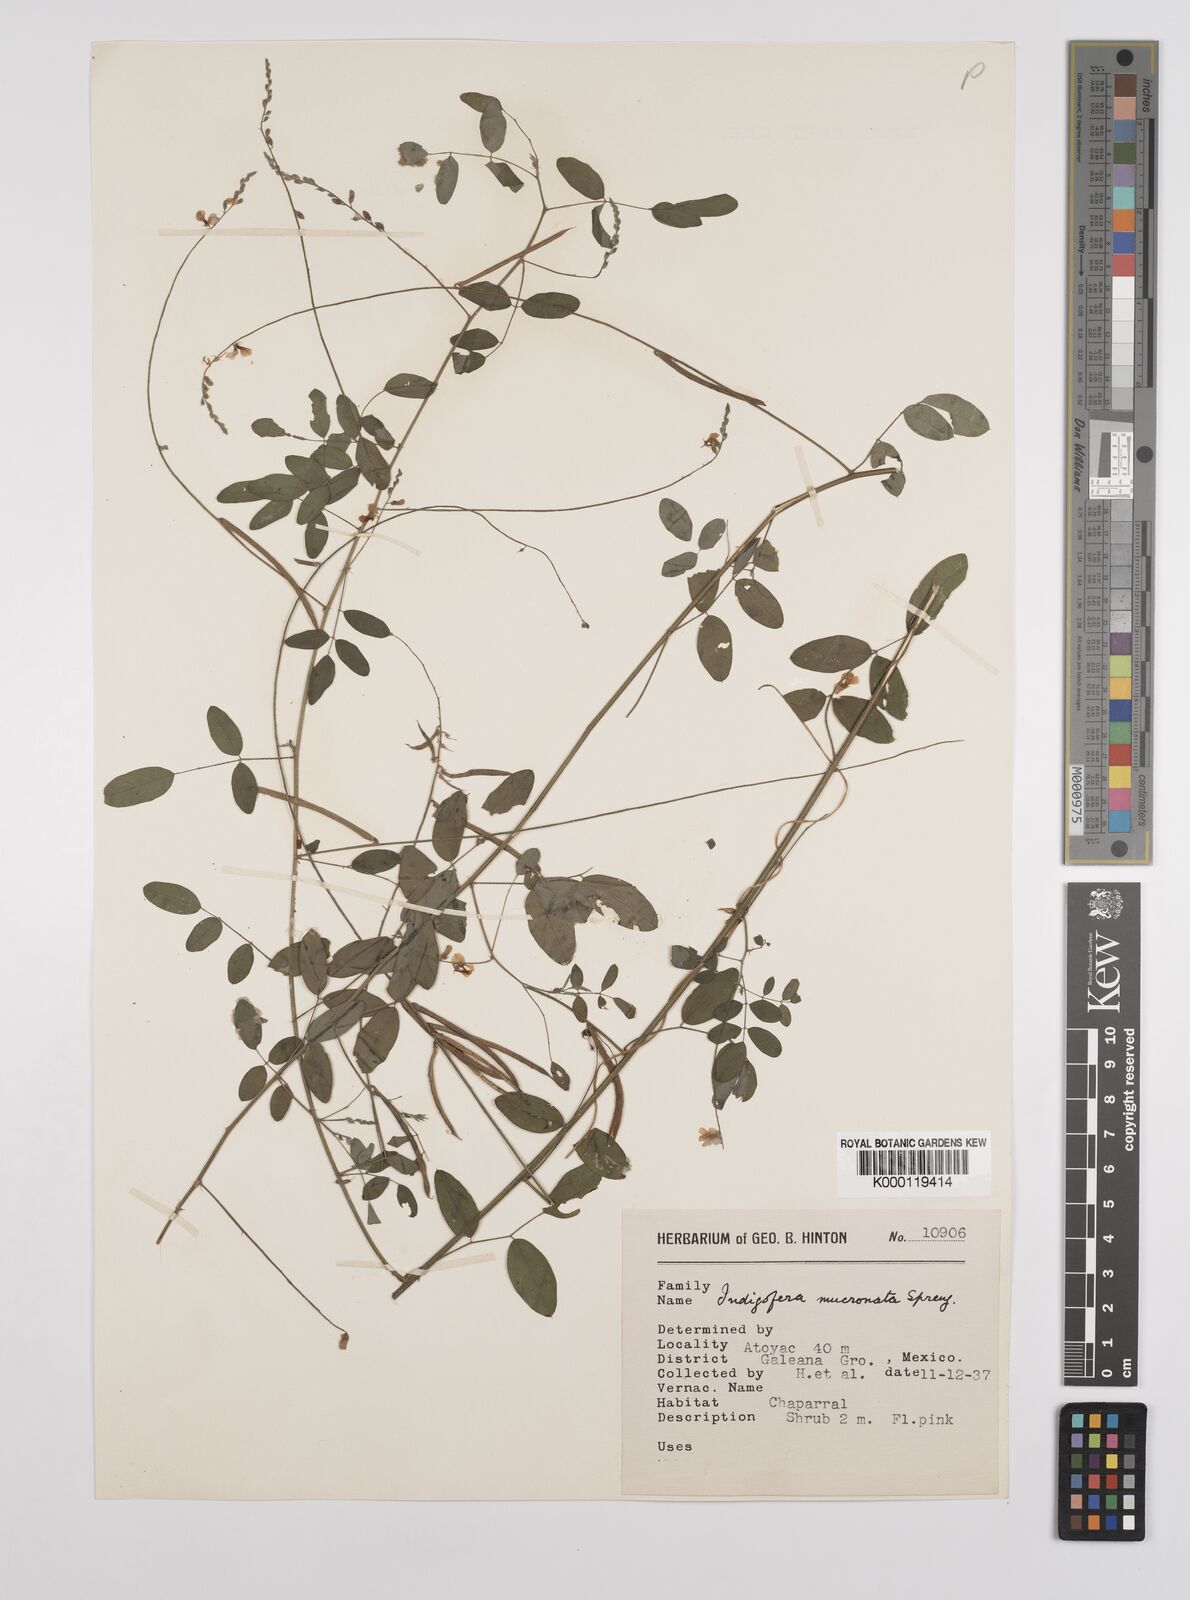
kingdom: Plantae
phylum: Tracheophyta
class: Magnoliopsida
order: Fabales
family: Fabaceae
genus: Indigofera
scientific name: Indigofera lespedezioides
